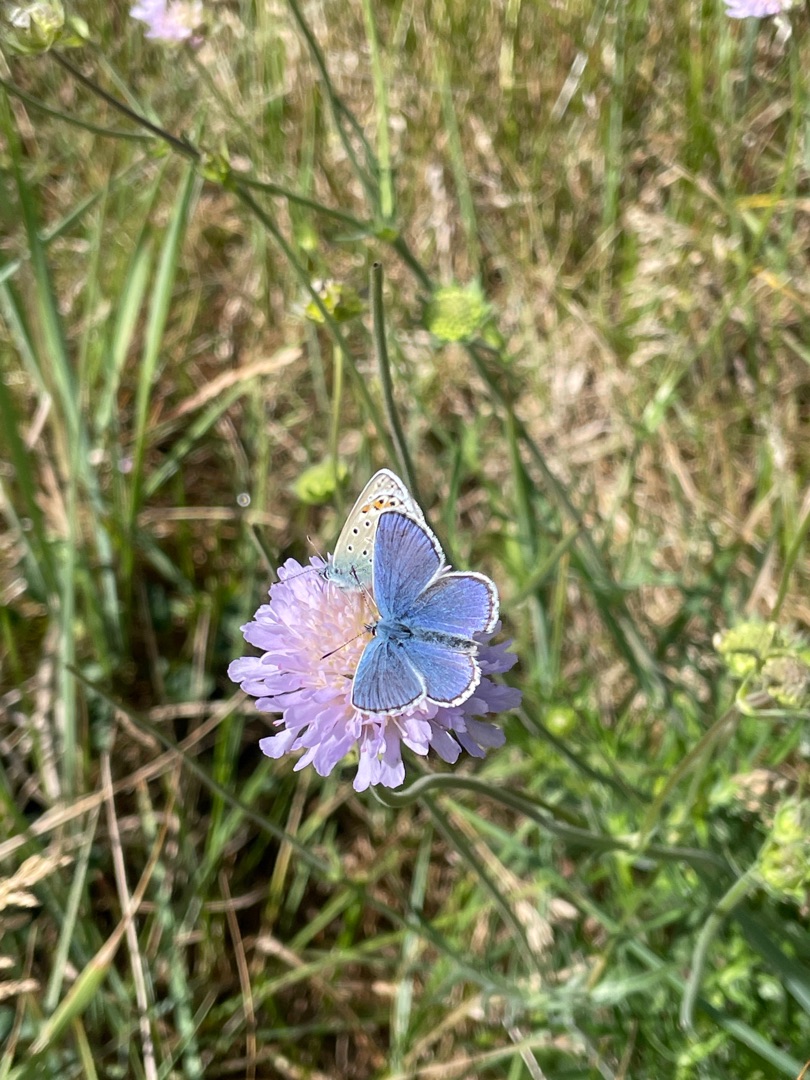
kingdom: Animalia
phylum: Arthropoda
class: Insecta
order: Lepidoptera
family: Lycaenidae
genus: Polyommatus
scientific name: Polyommatus icarus
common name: Almindelig blåfugl
